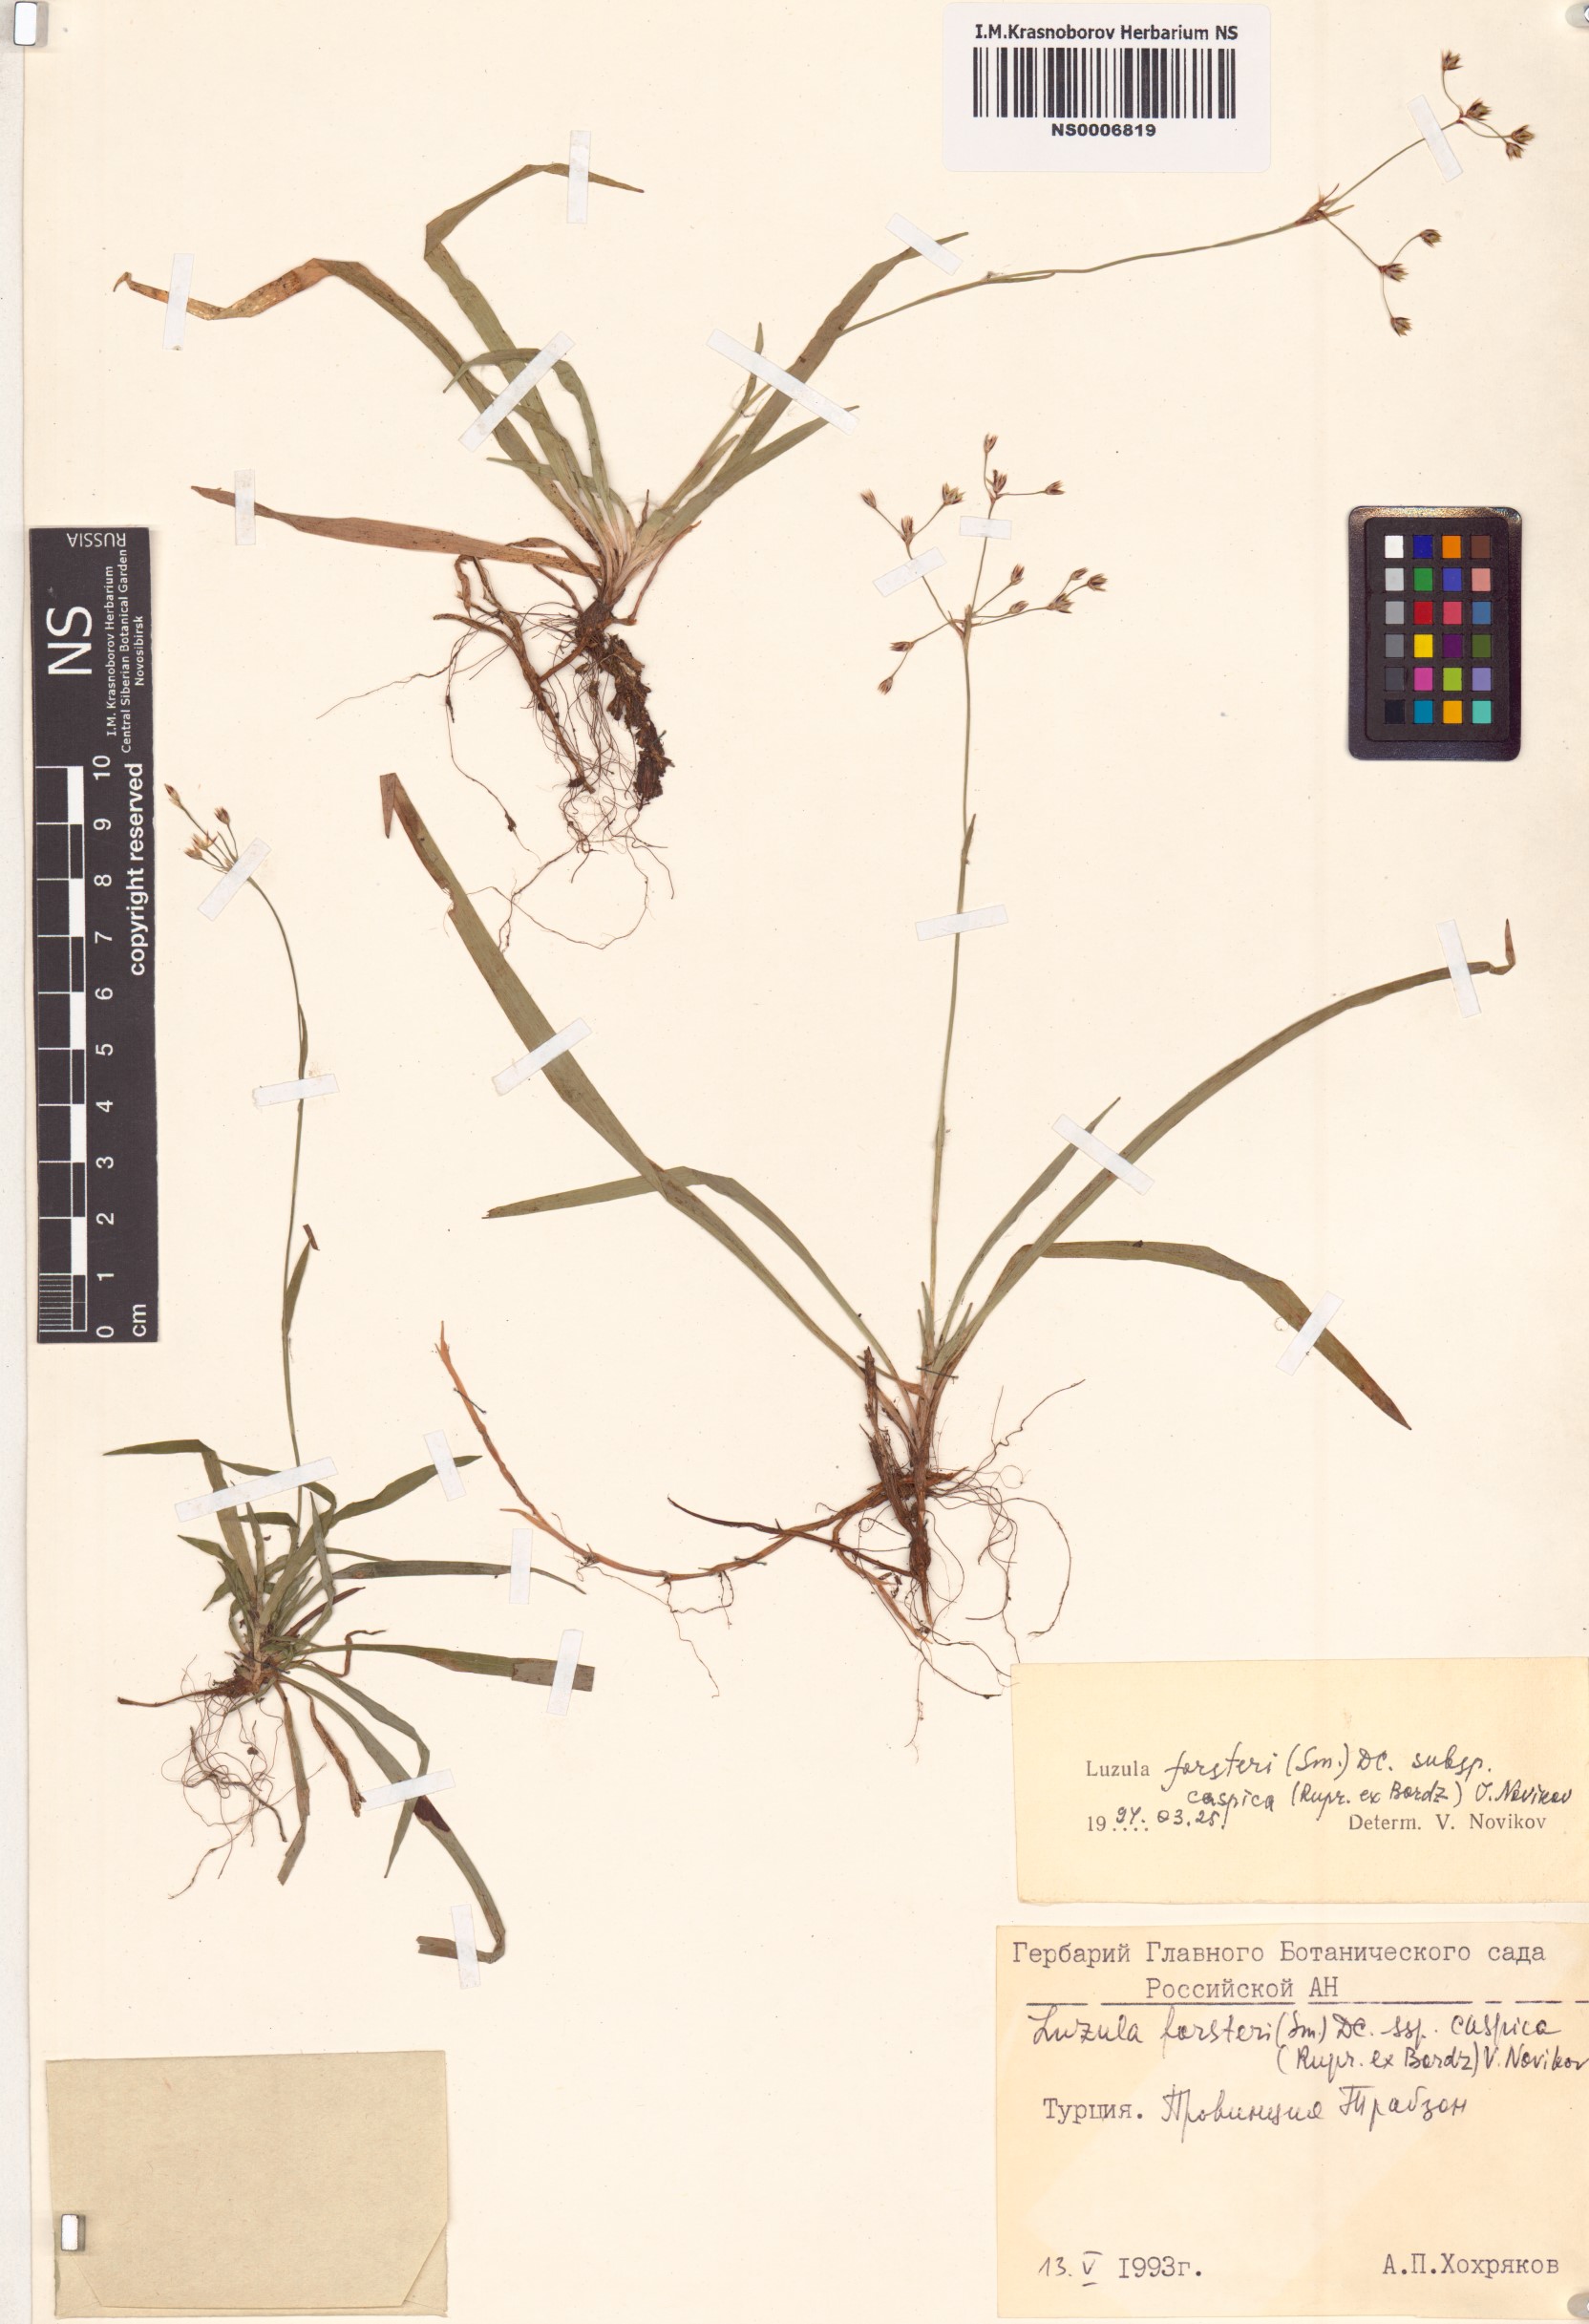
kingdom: Plantae
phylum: Tracheophyta
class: Liliopsida
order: Poales
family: Juncaceae
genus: Luzula
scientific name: Luzula forsteri
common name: Southern wood-rush
